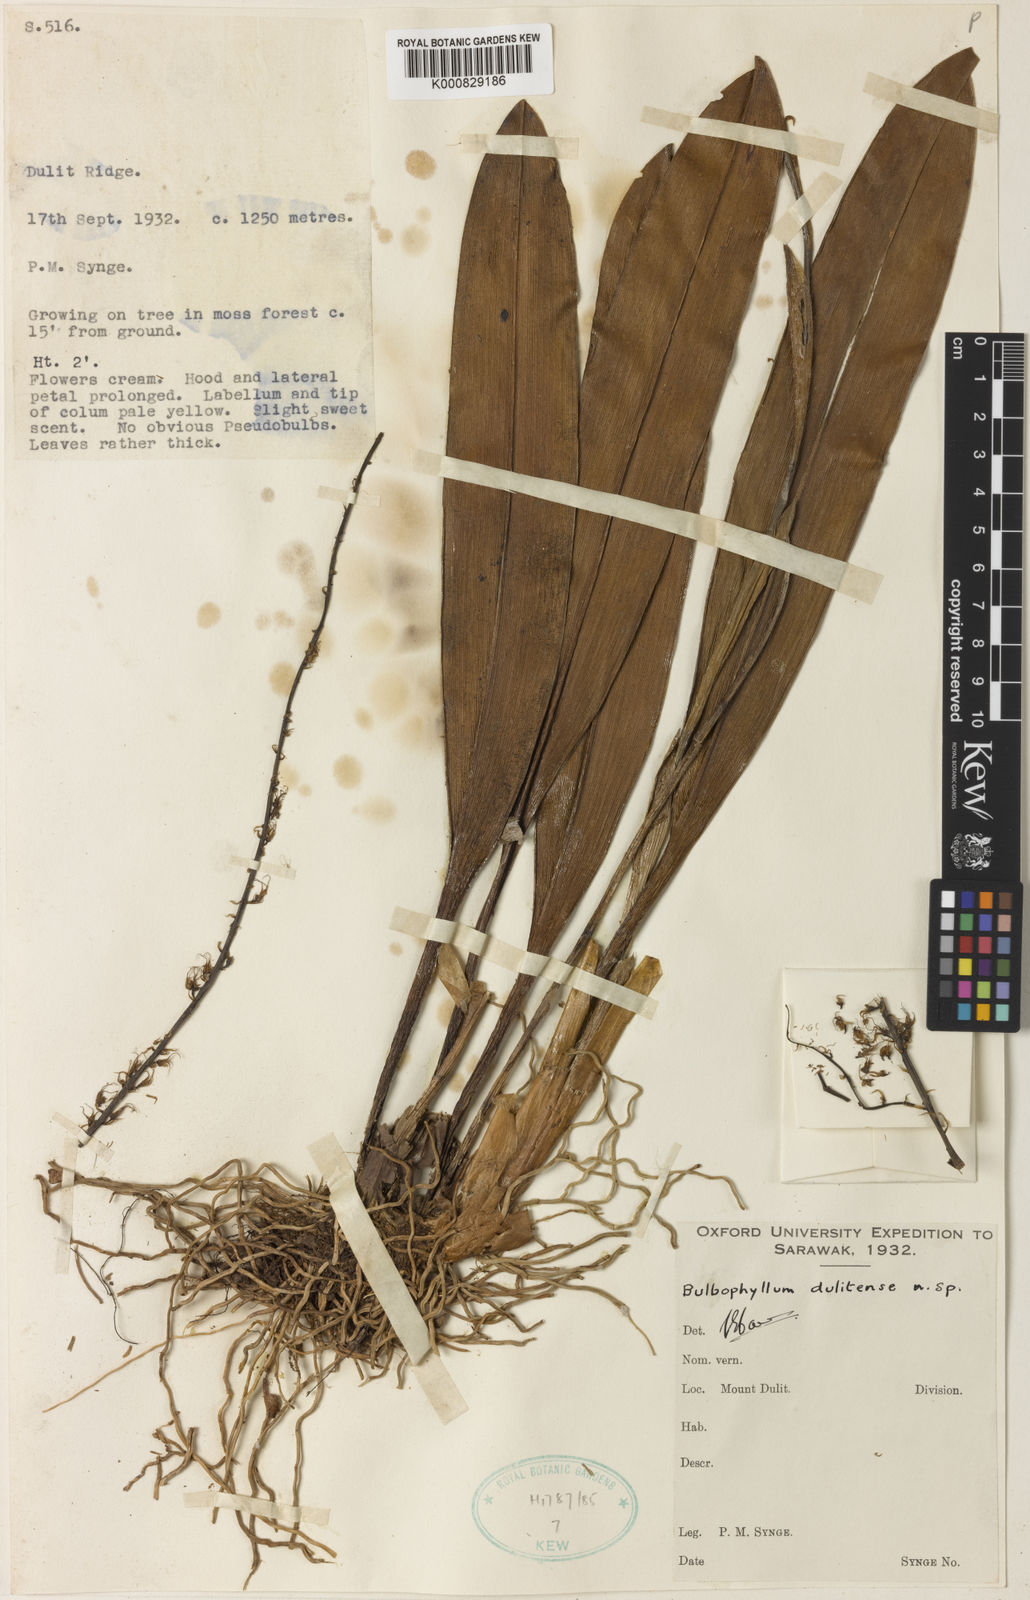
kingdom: Plantae
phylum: Tracheophyta
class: Liliopsida
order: Asparagales
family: Orchidaceae
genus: Bulbophyllum
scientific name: Bulbophyllum caudatisepalum
